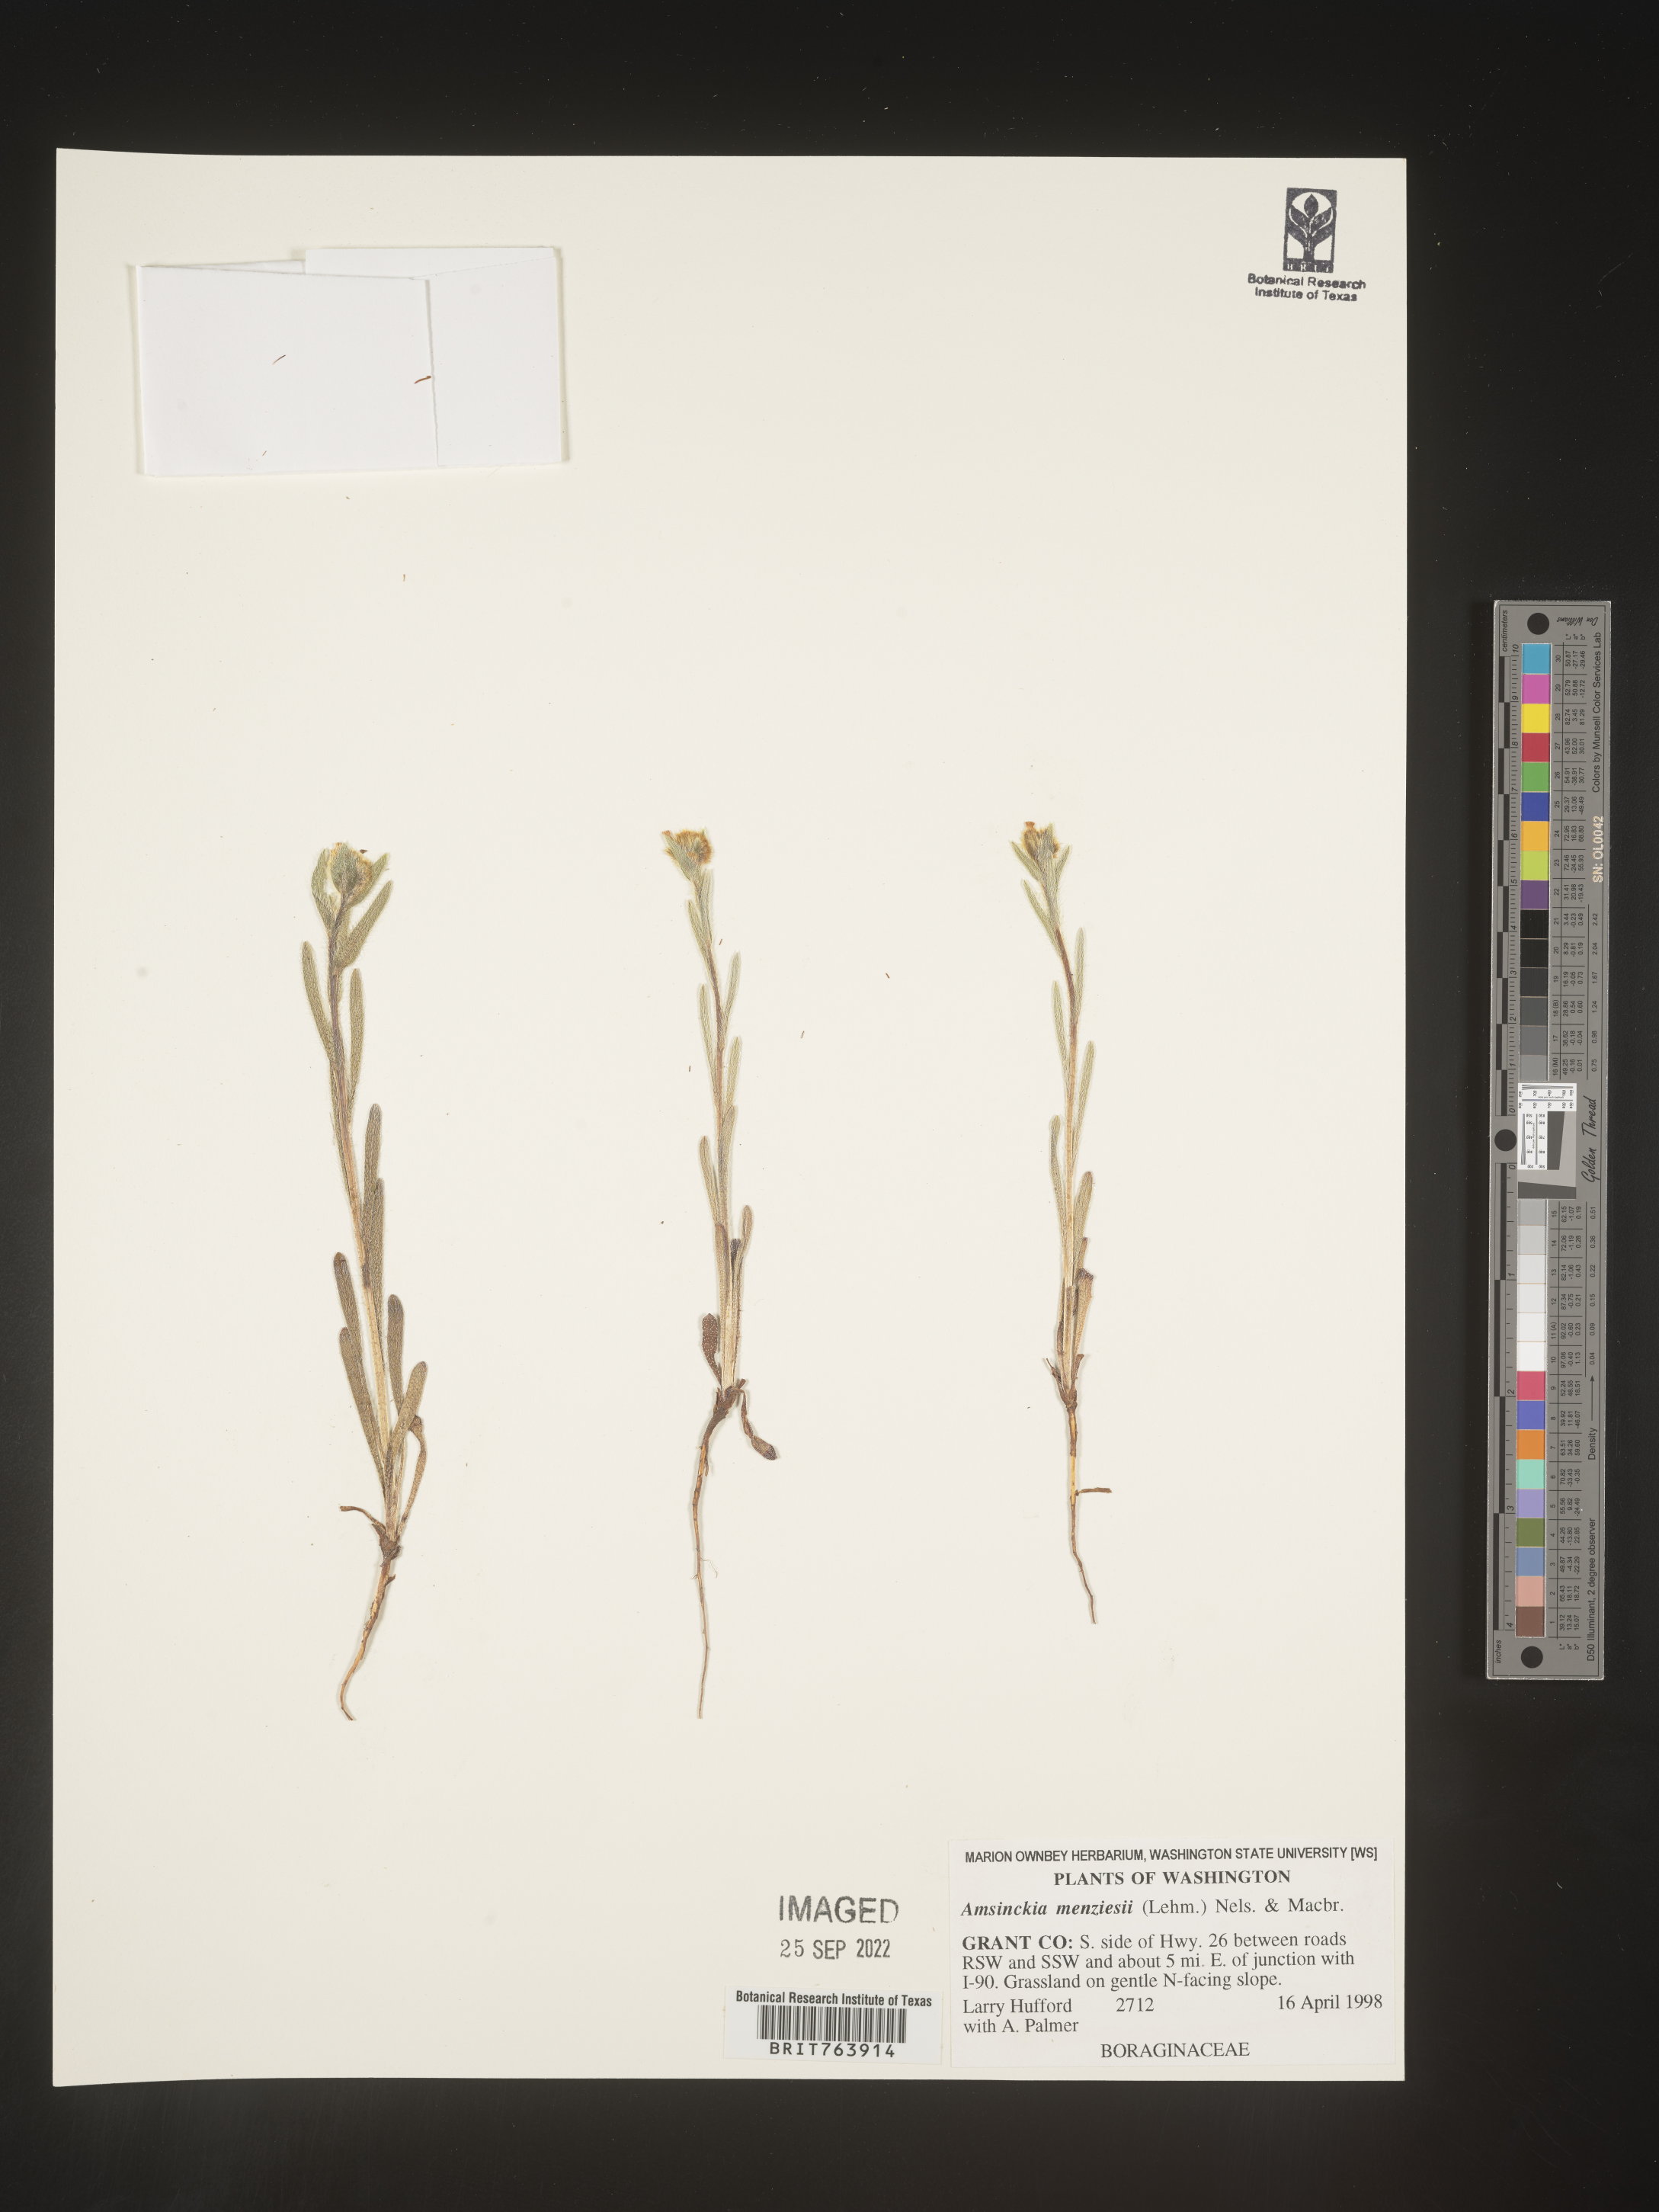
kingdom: Plantae
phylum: Tracheophyta
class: Magnoliopsida
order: Boraginales
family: Boraginaceae
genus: Amsinckia
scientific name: Amsinckia menziesii
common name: Menzies' fiddleneck
